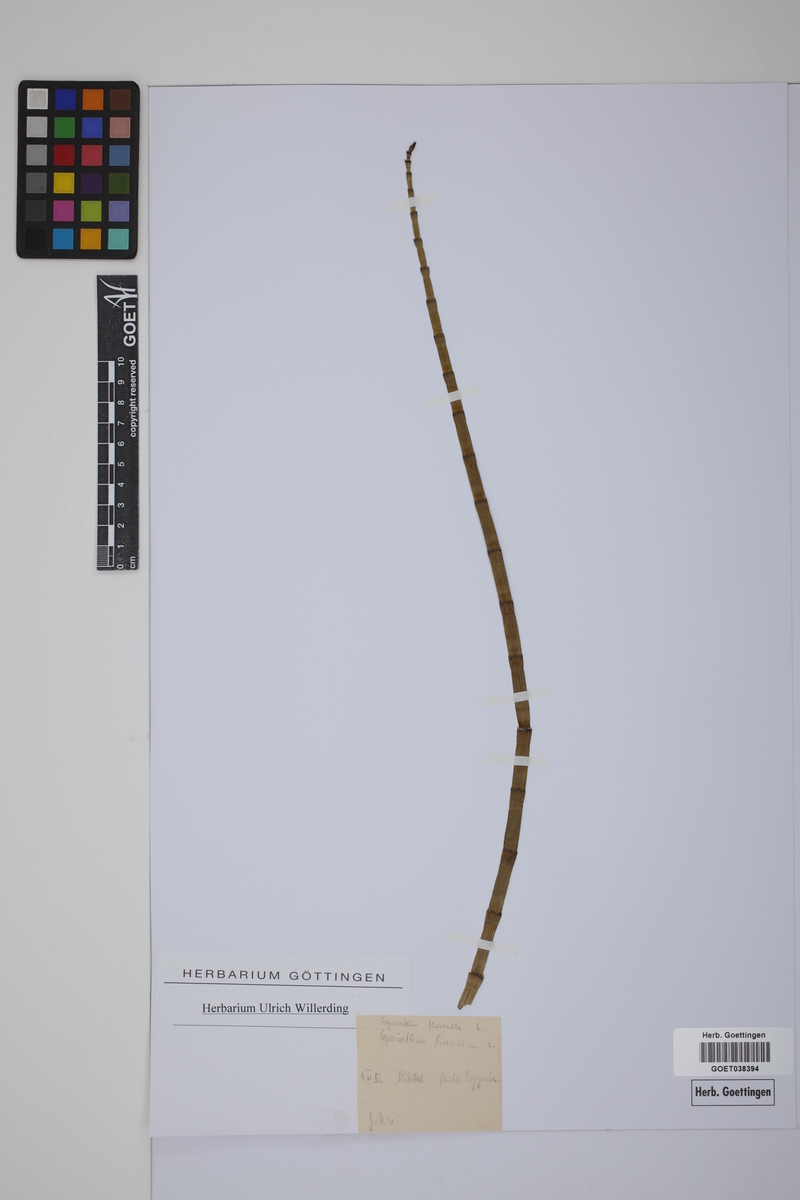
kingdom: Plantae
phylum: Tracheophyta
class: Polypodiopsida
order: Equisetales
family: Equisetaceae
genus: Equisetum
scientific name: Equisetum fluviatile
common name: Water horsetail
